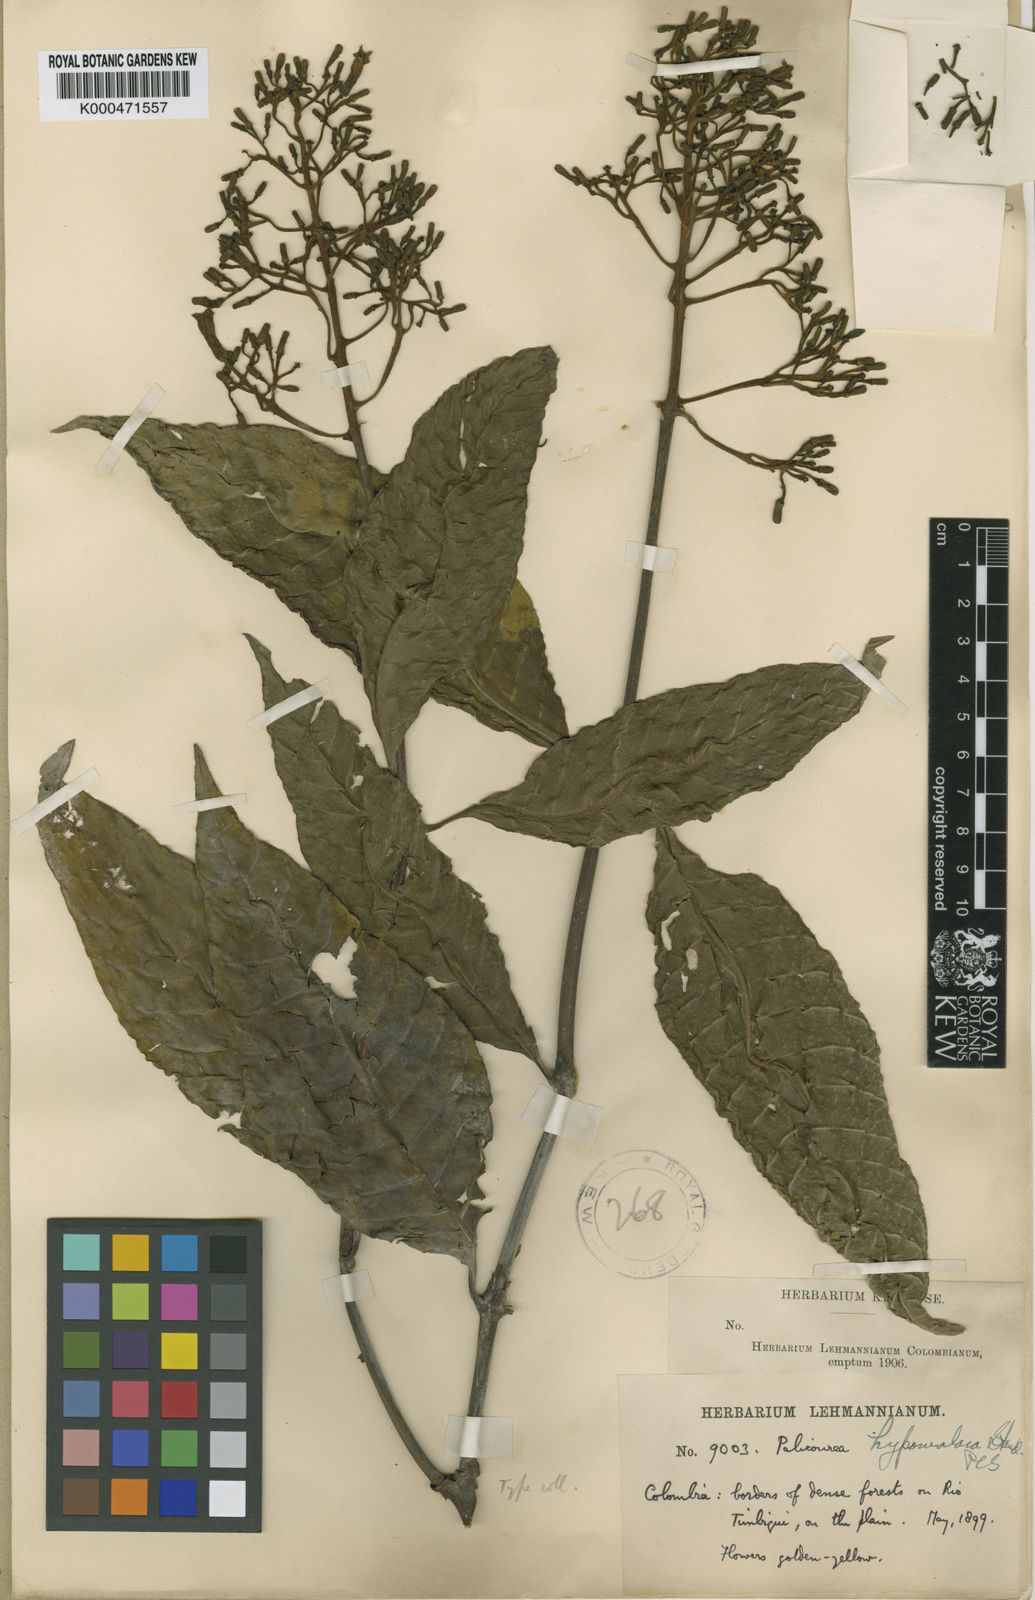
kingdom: Plantae
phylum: Tracheophyta
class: Magnoliopsida
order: Gentianales
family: Rubiaceae
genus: Palicourea
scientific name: Palicourea guianensis
